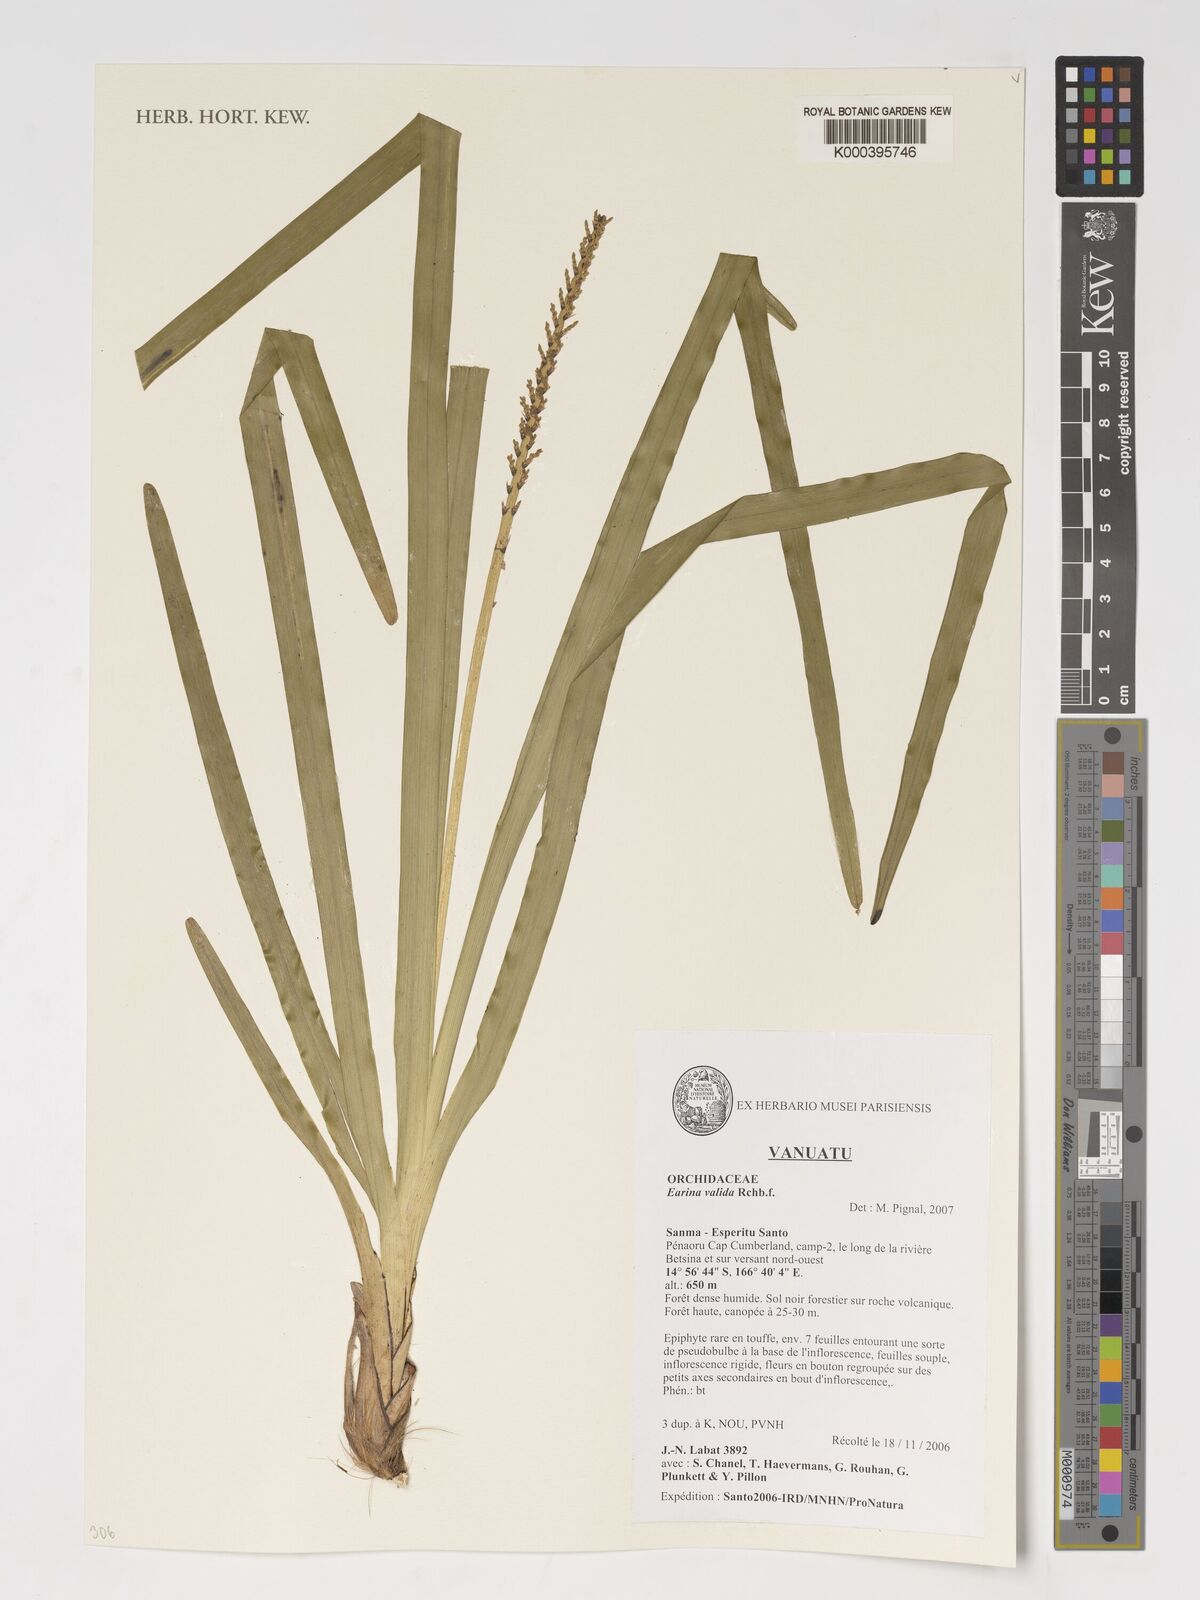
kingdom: Plantae
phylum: Tracheophyta
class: Liliopsida
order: Asparagales
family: Orchidaceae
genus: Earina
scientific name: Earina valida
